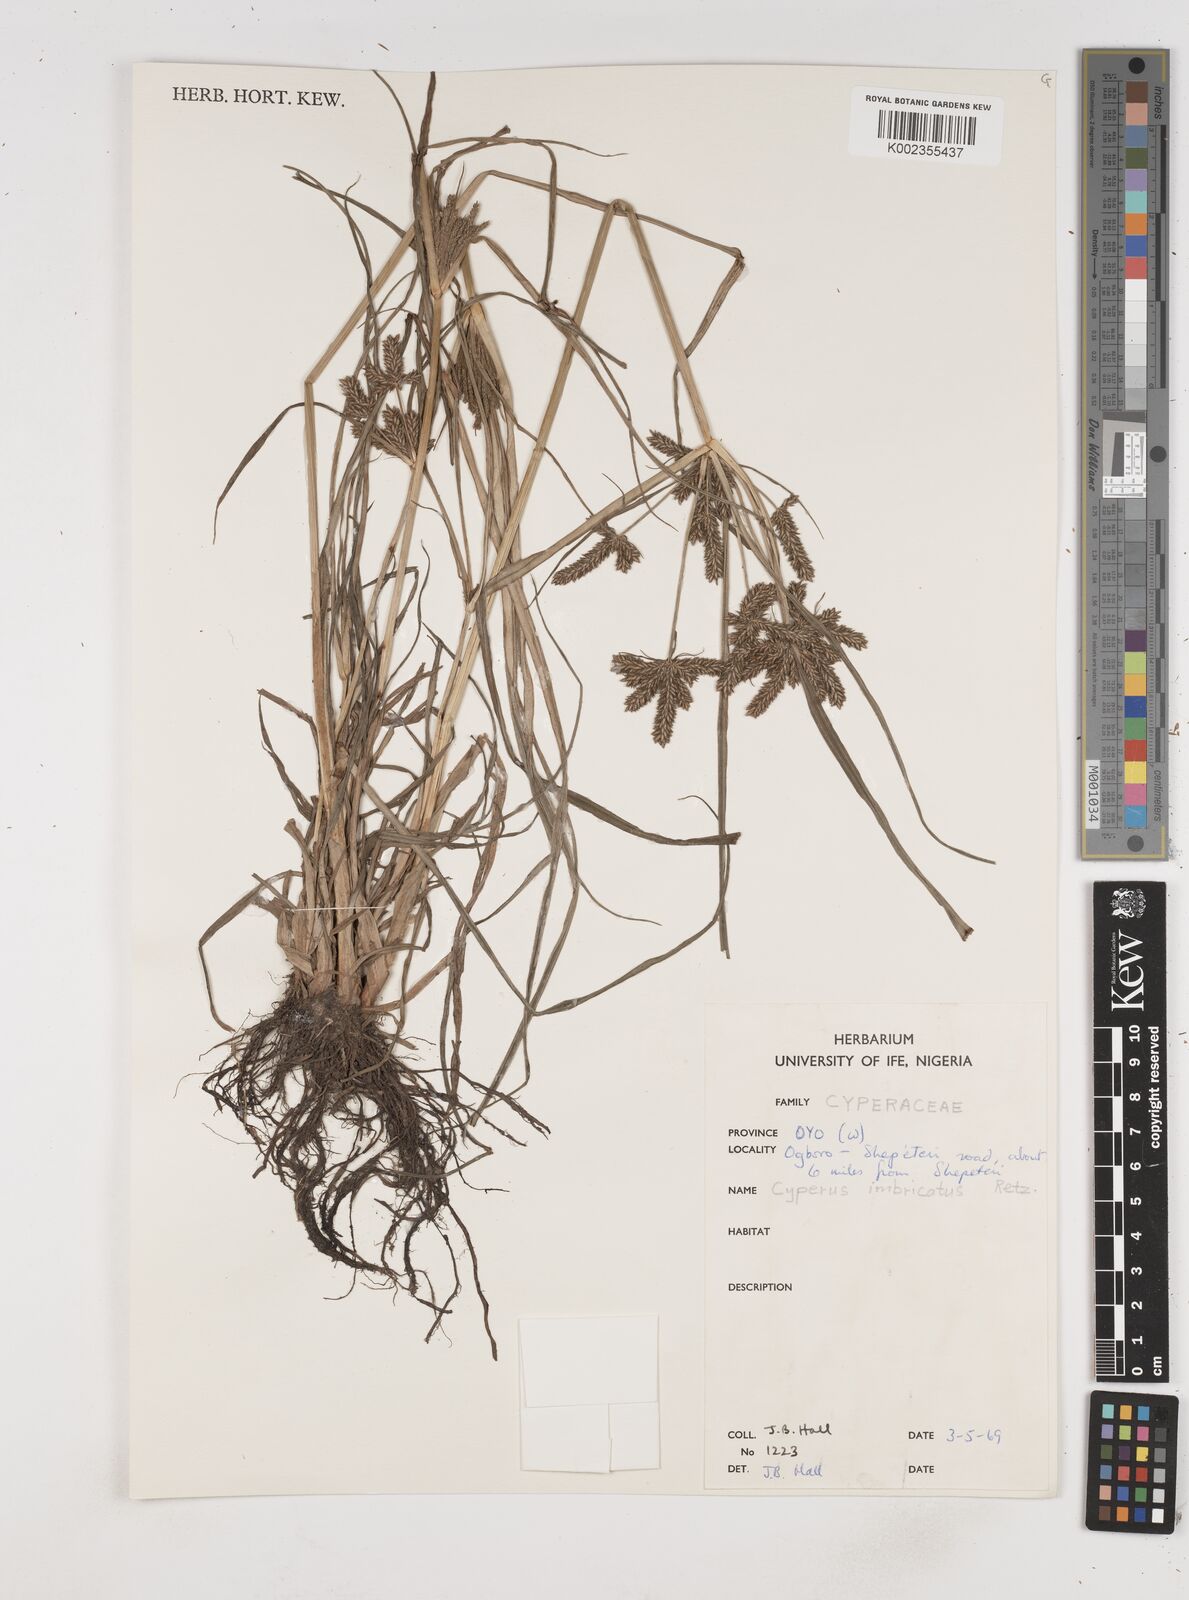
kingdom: Plantae
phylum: Tracheophyta
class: Liliopsida
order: Poales
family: Cyperaceae
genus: Cyperus
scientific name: Cyperus imbricatus
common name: Shingle flatsedge
